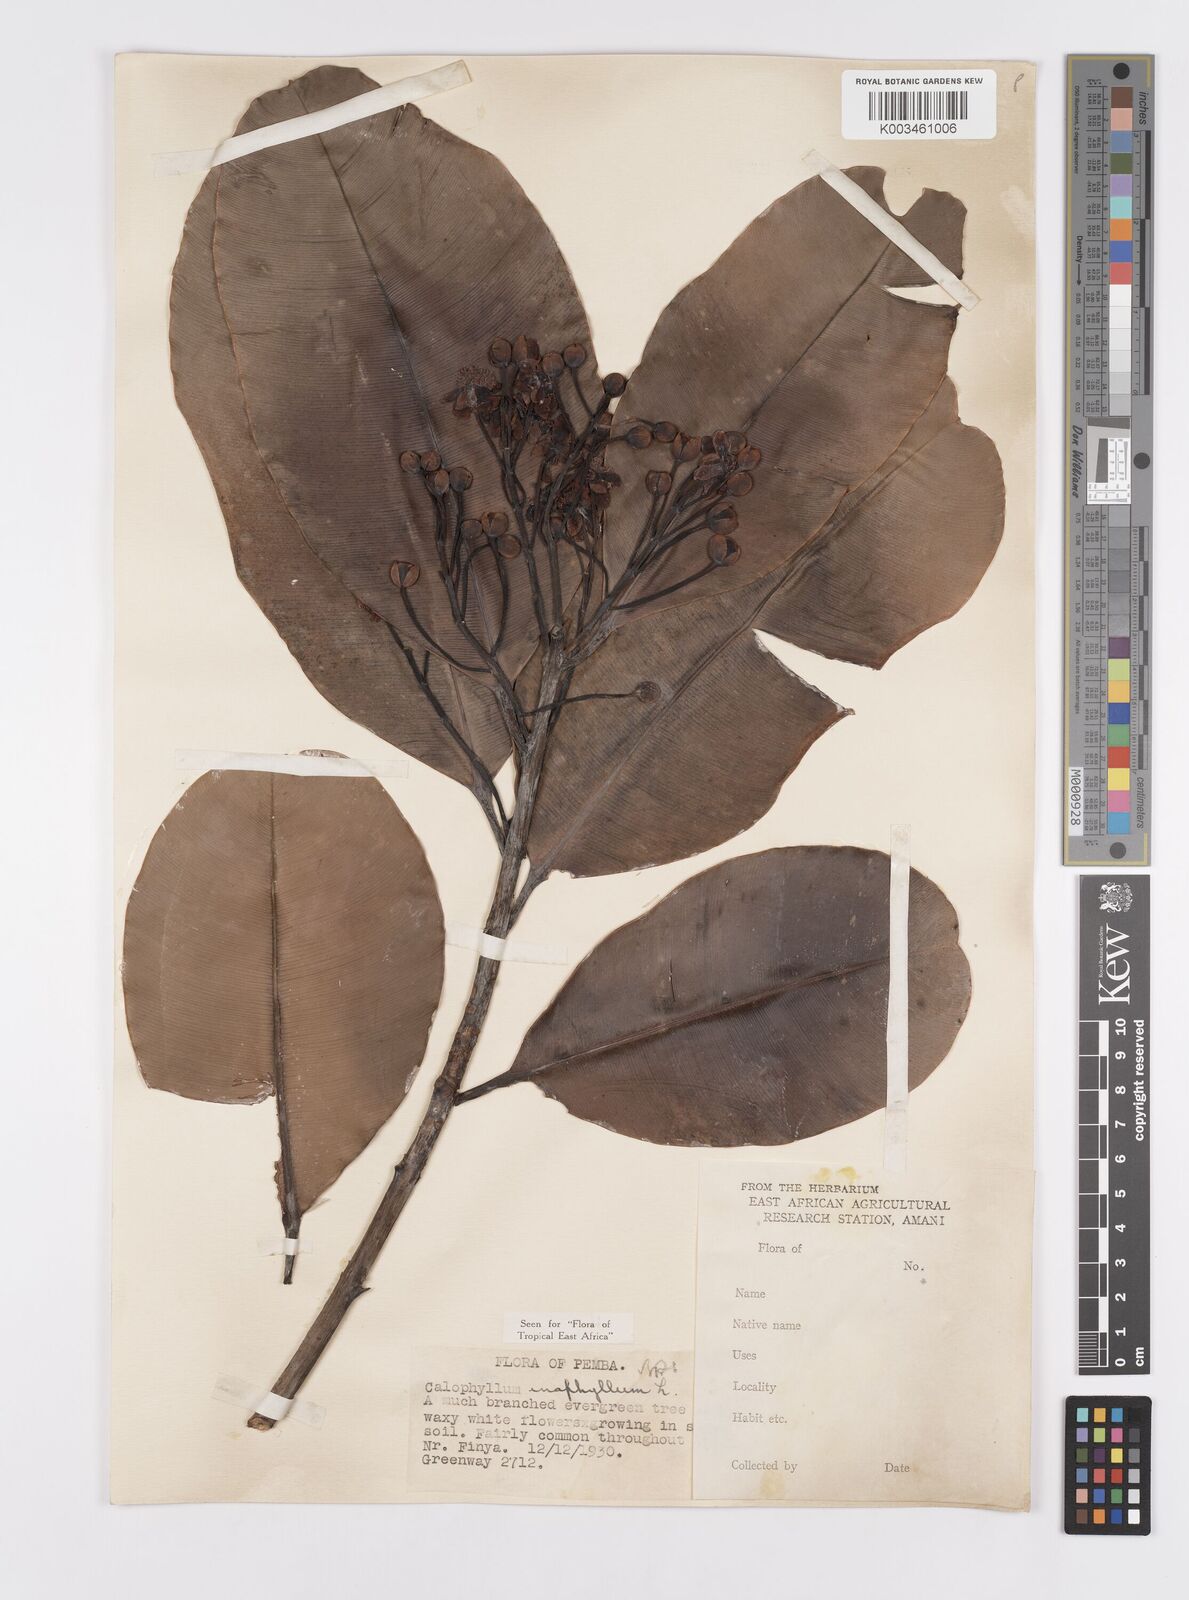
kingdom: Plantae
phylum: Tracheophyta
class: Magnoliopsida
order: Malpighiales
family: Calophyllaceae
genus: Calophyllum
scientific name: Calophyllum inophyllum
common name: Alexandrian laurel
